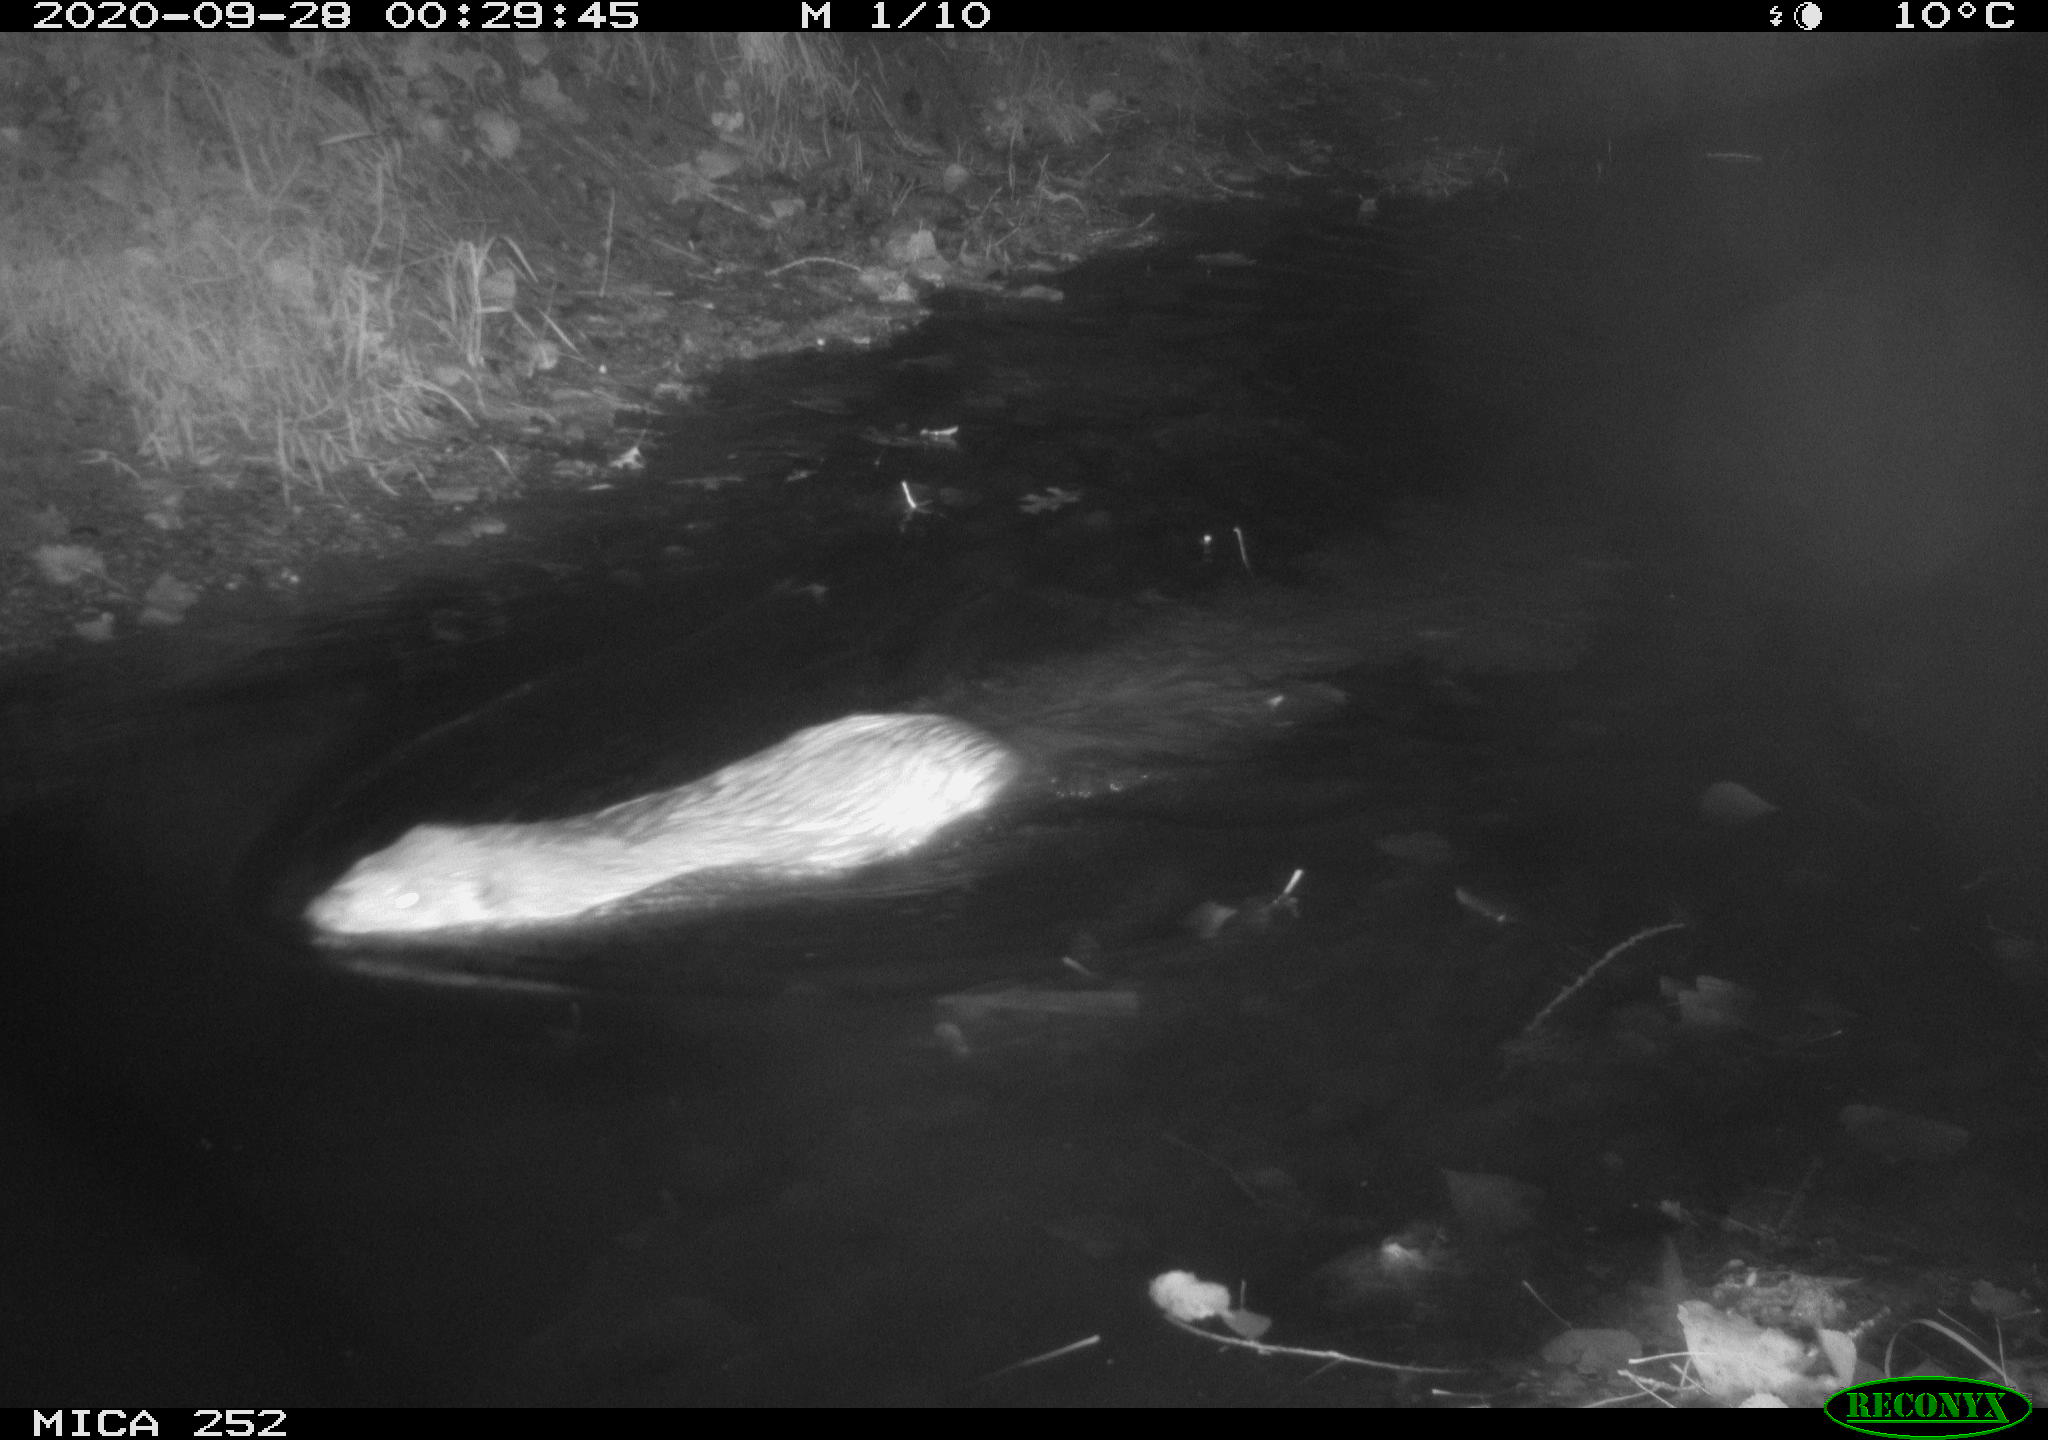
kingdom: Animalia
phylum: Chordata
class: Mammalia
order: Rodentia
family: Castoridae
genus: Castor
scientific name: Castor fiber
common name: Eurasian beaver
